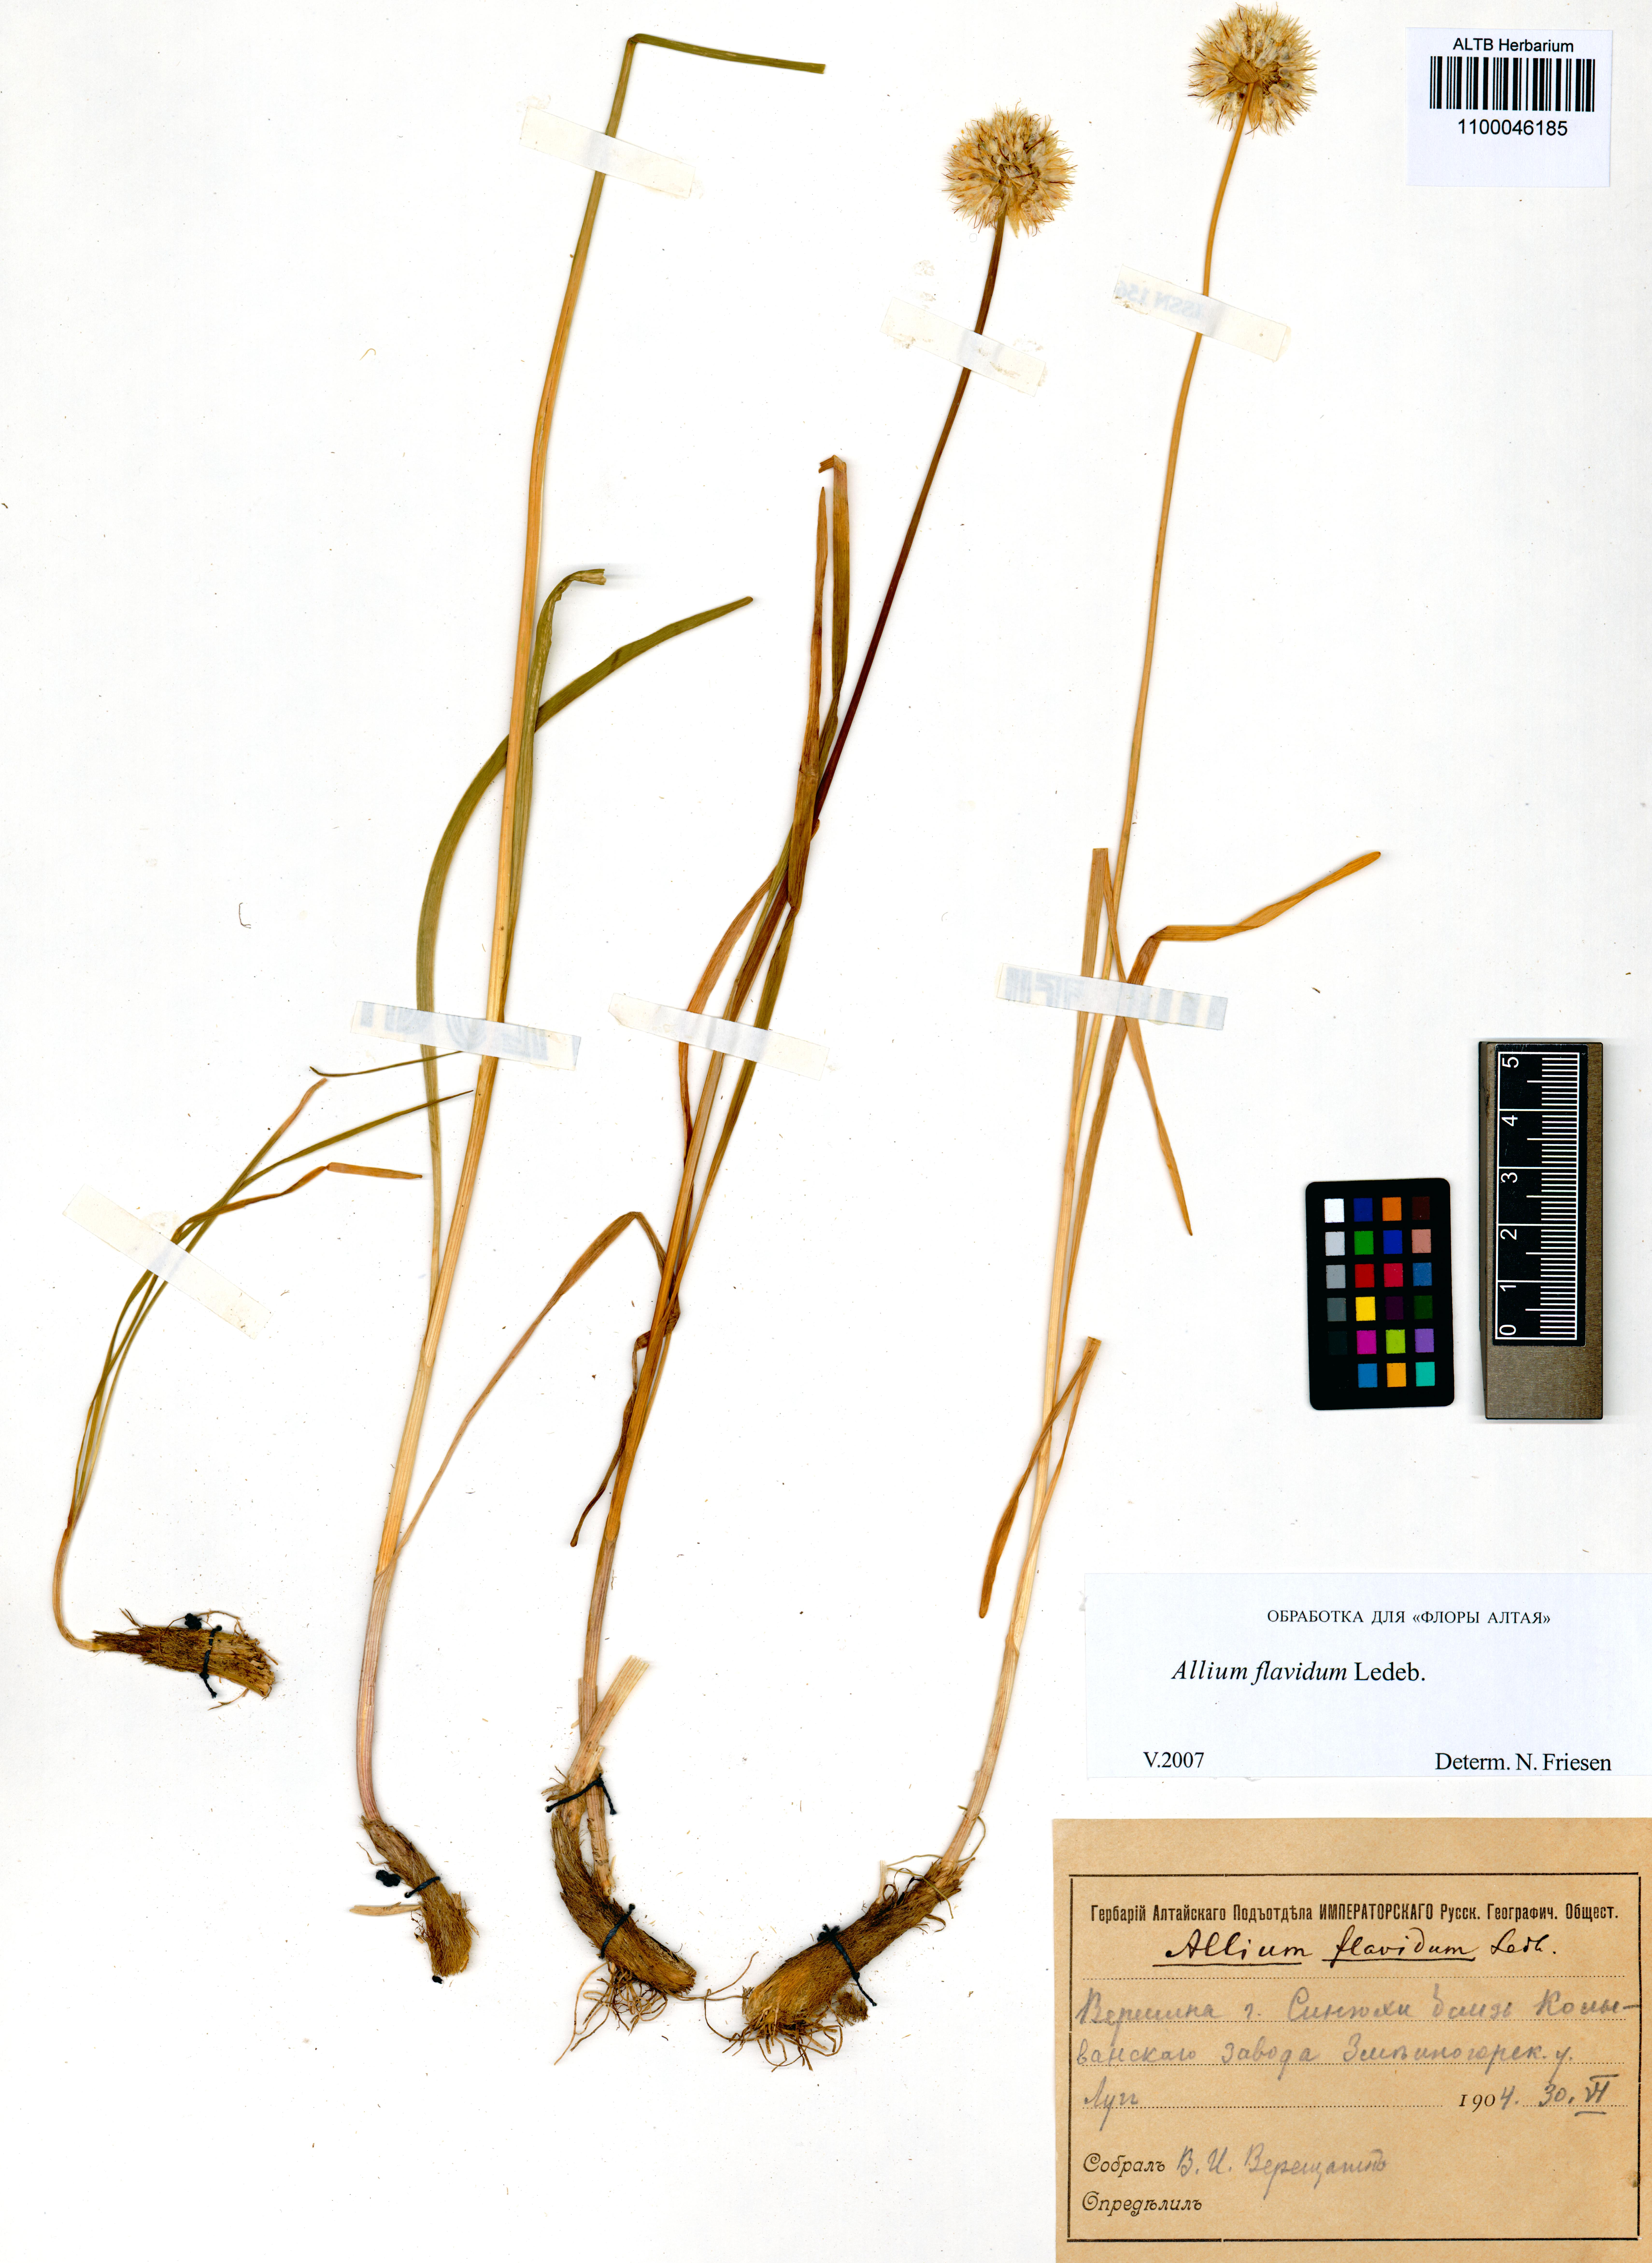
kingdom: Plantae
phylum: Tracheophyta
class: Liliopsida
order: Asparagales
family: Amaryllidaceae
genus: Allium
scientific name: Allium flavidum
